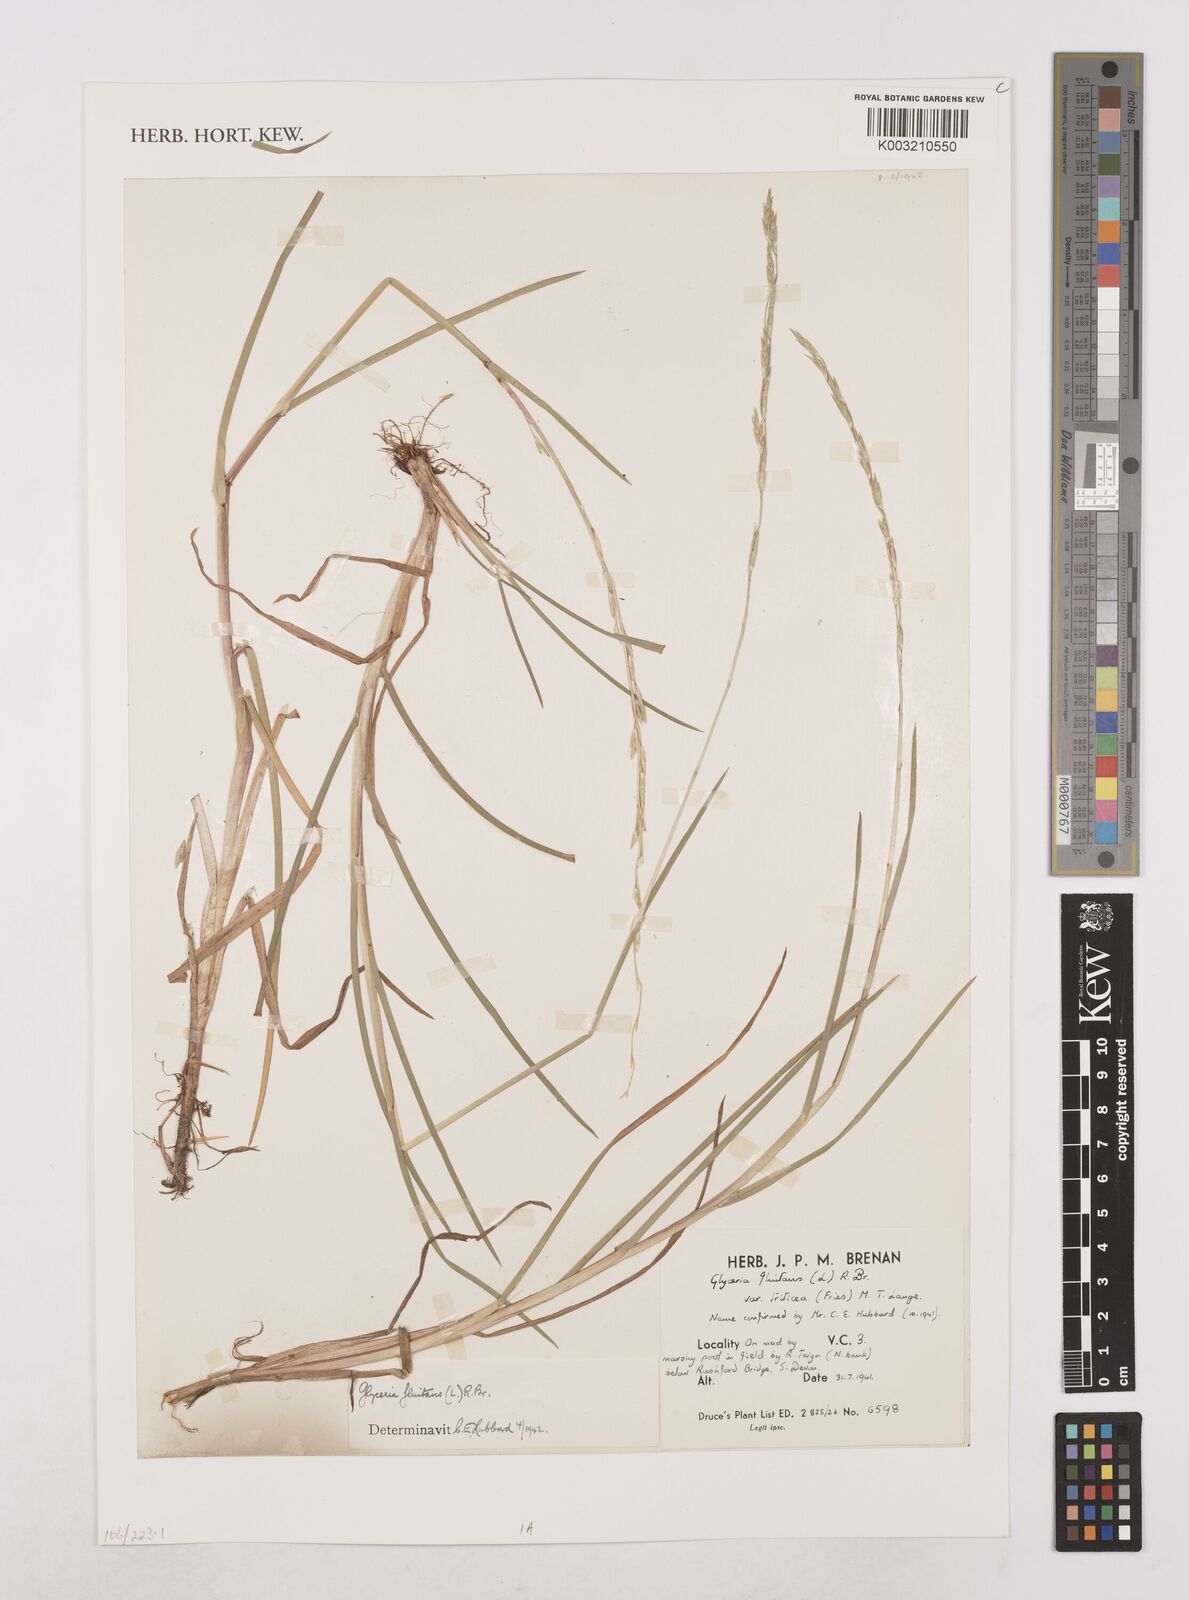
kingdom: Plantae
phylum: Tracheophyta
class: Liliopsida
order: Poales
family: Poaceae
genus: Glyceria
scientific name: Glyceria fluitans
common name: Floating sweet-grass
